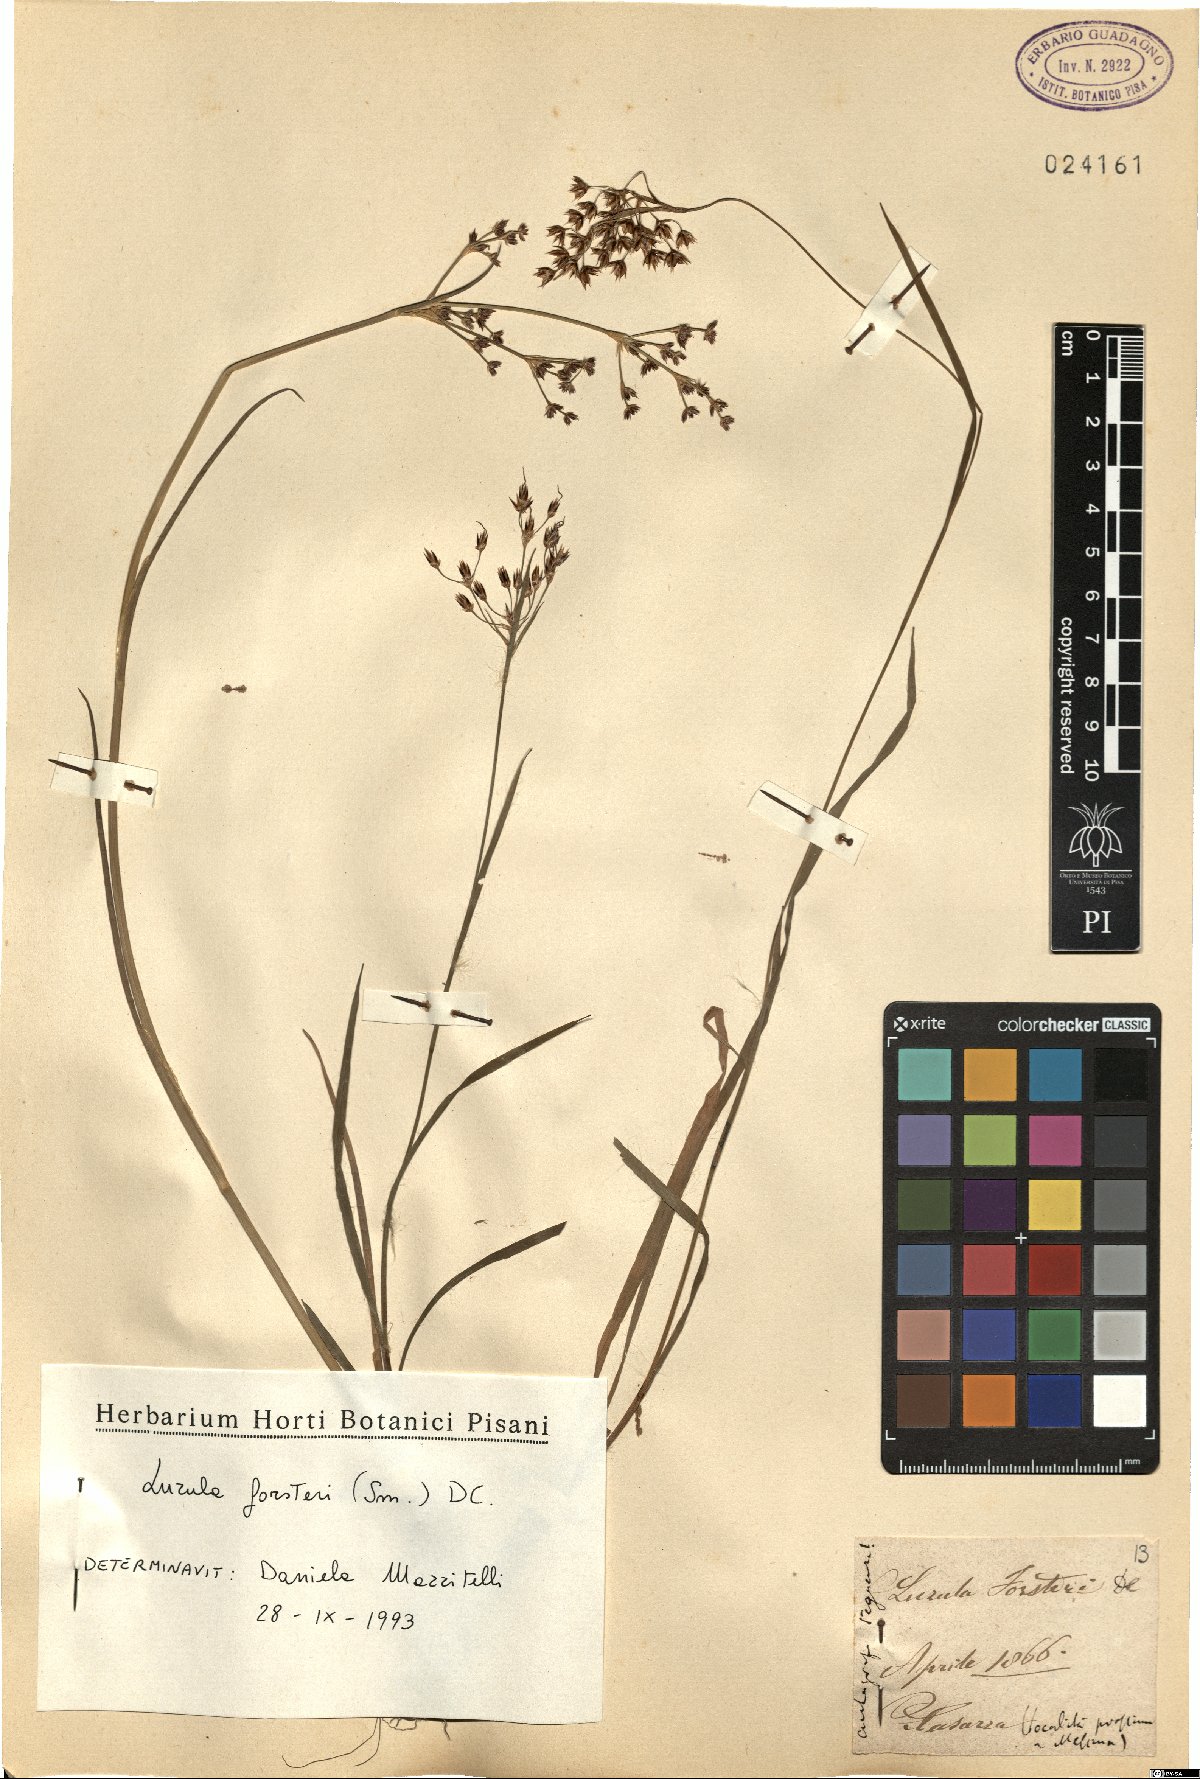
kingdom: Plantae
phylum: Tracheophyta
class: Liliopsida
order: Poales
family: Juncaceae
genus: Luzula
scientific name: Luzula forsteri
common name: Southern wood-rush
